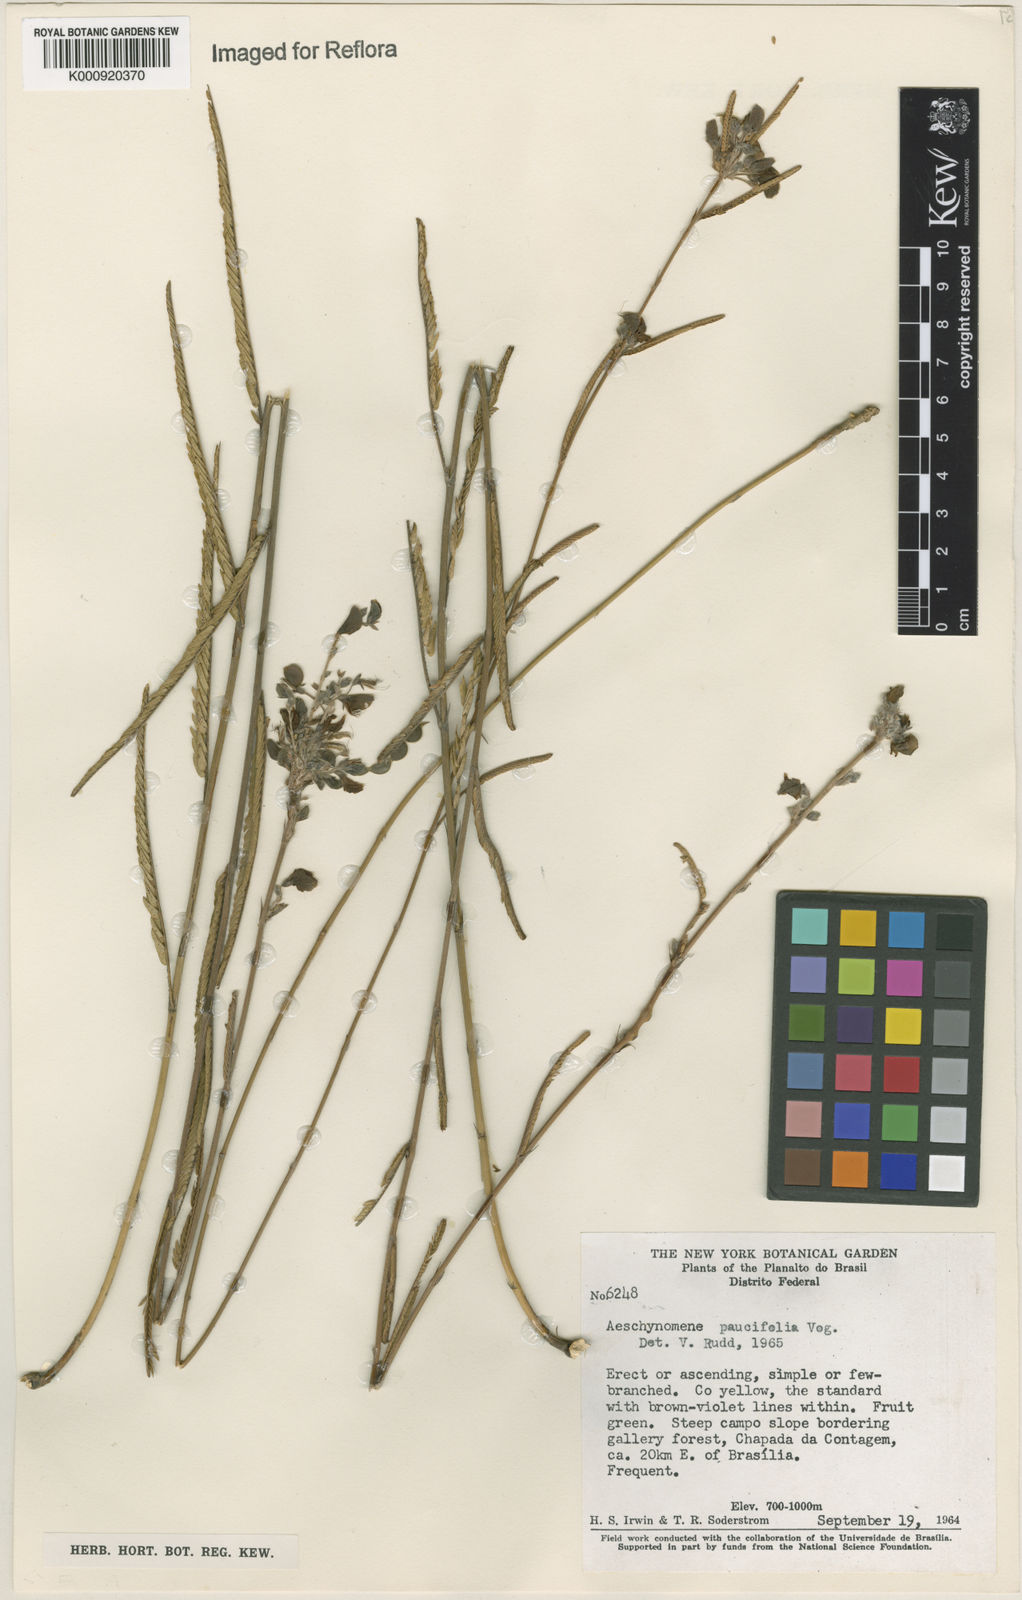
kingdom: Plantae
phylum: Tracheophyta
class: Magnoliopsida
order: Fabales
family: Fabaceae
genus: Ctenodon
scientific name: Ctenodon paucifolius
